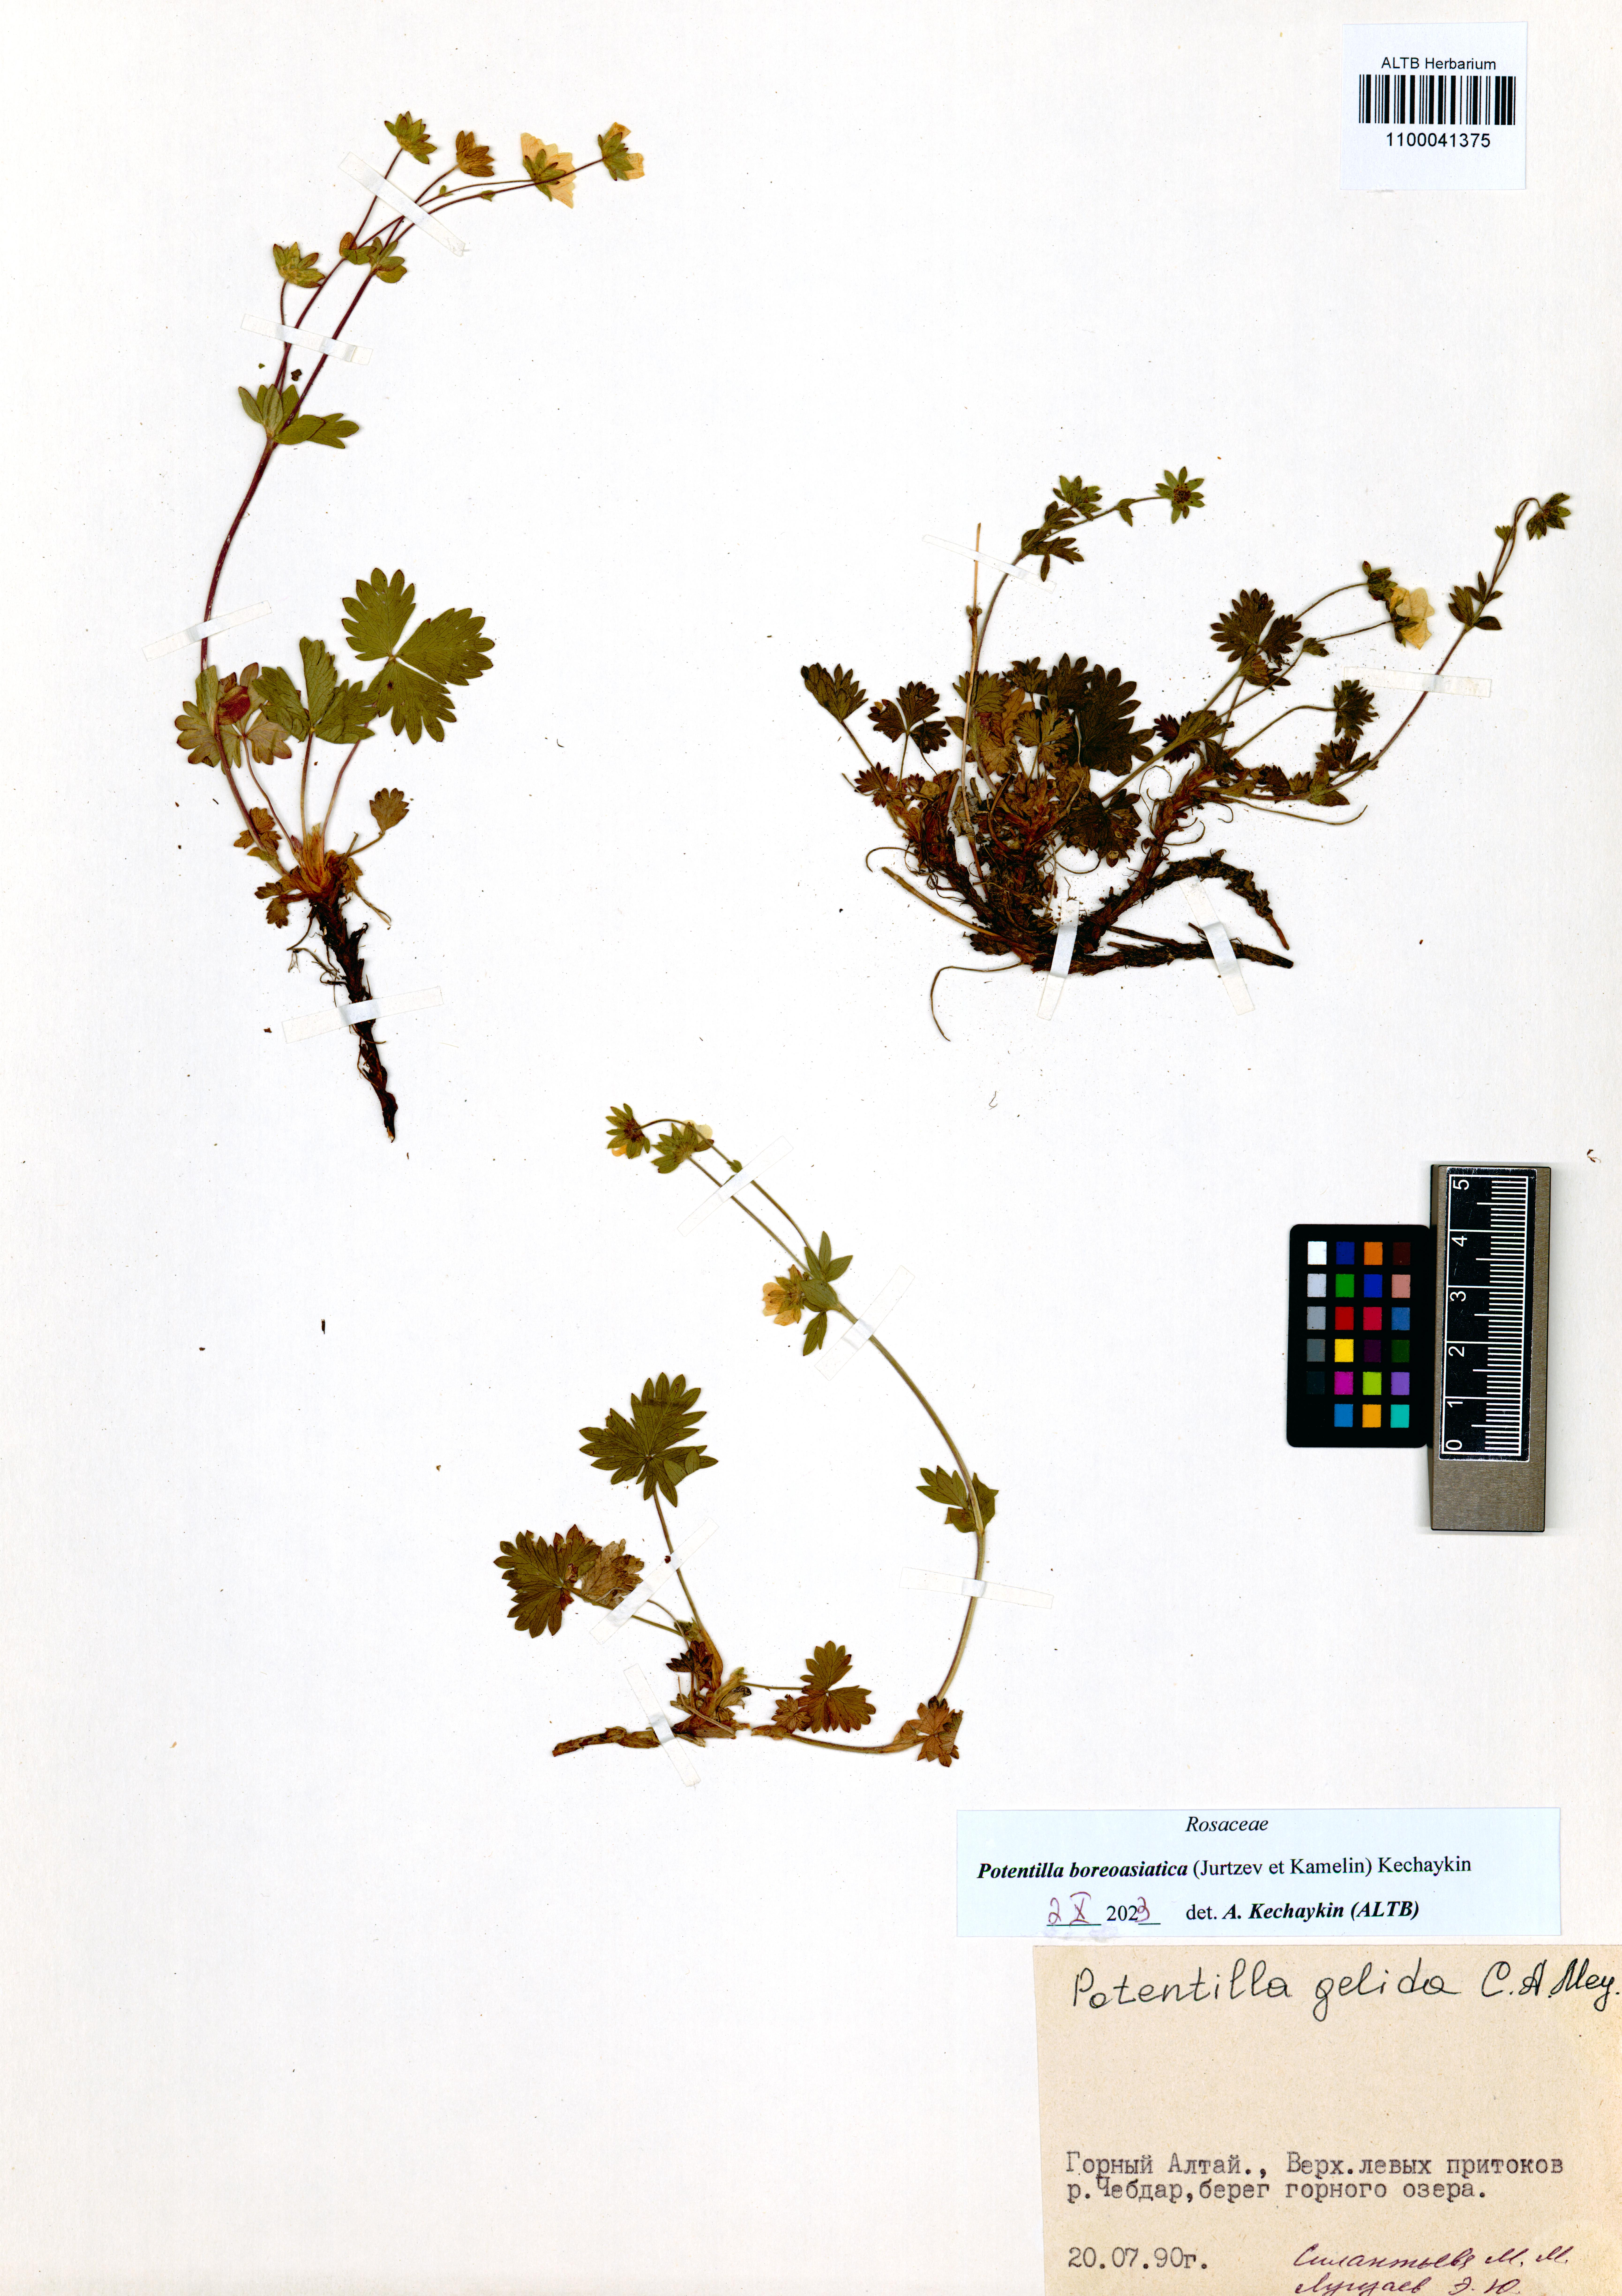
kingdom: Plantae
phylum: Tracheophyta
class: Magnoliopsida
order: Rosales
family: Rosaceae
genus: Potentilla
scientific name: Potentilla
